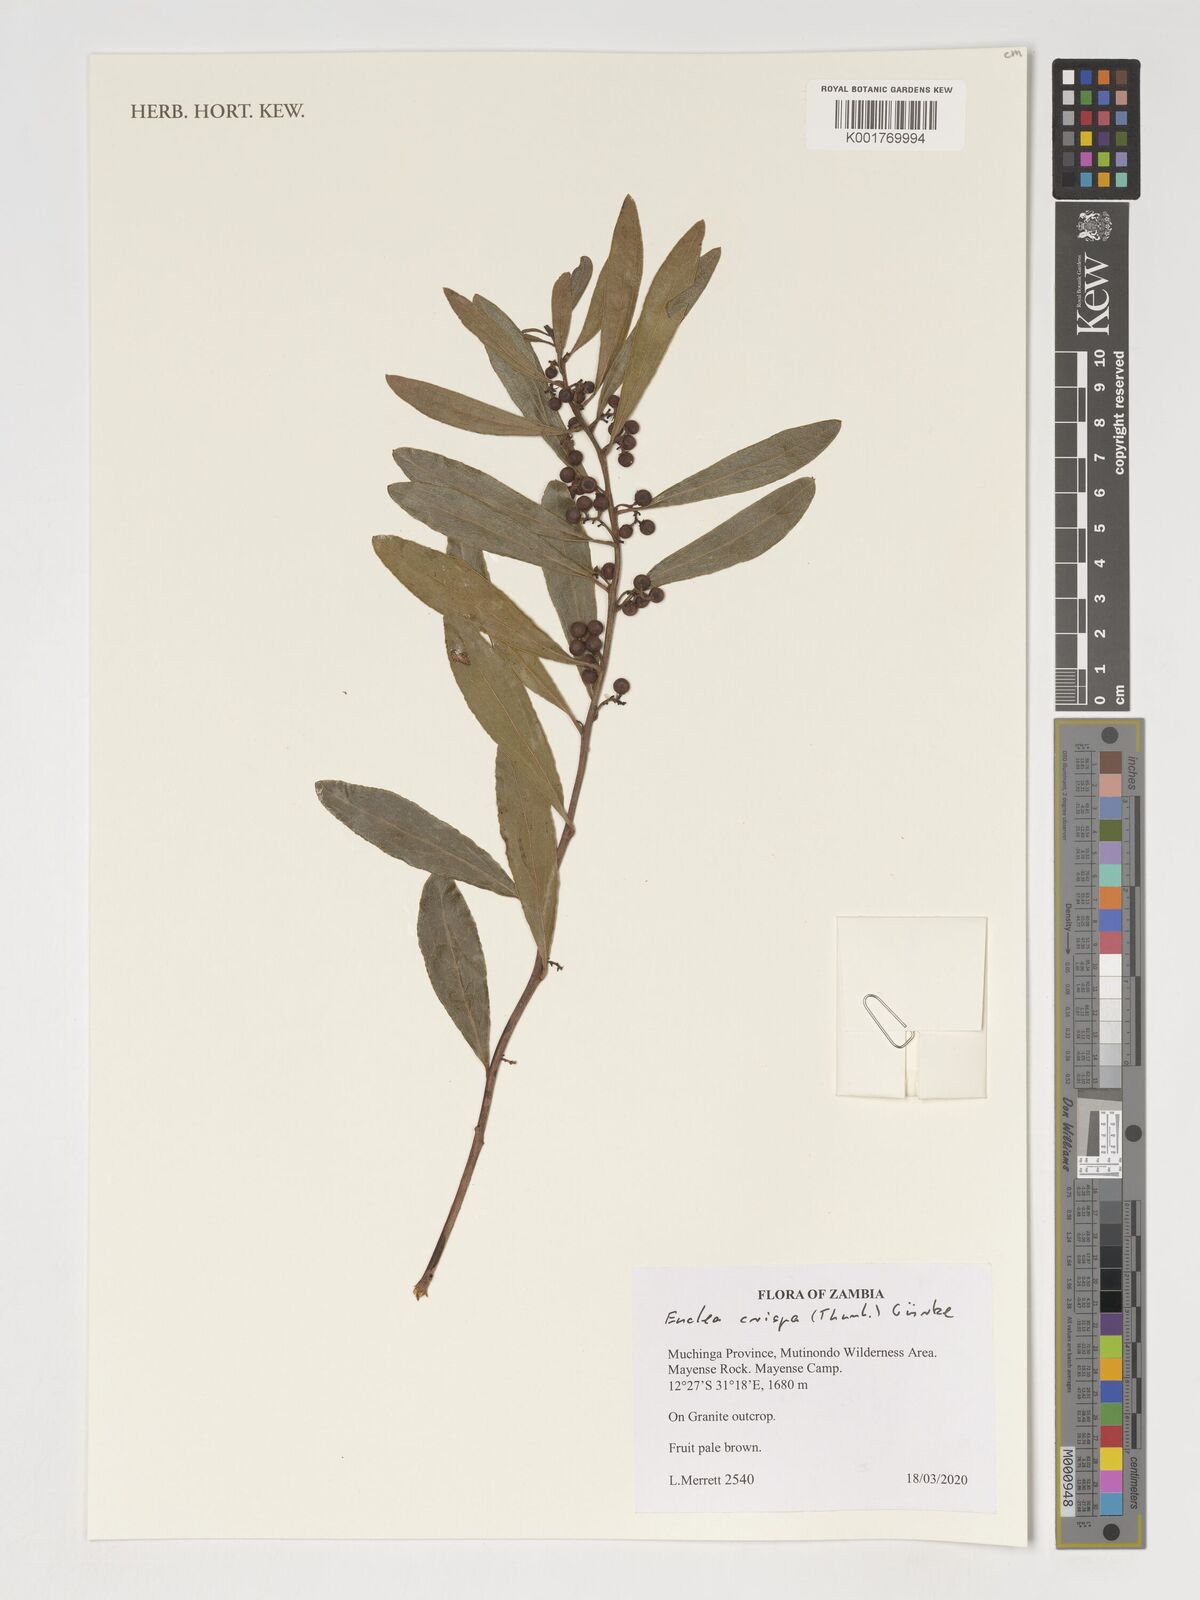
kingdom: Plantae
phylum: Tracheophyta
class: Magnoliopsida
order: Ericales
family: Ebenaceae
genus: Euclea
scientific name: Euclea crispa
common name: Blue guarri
